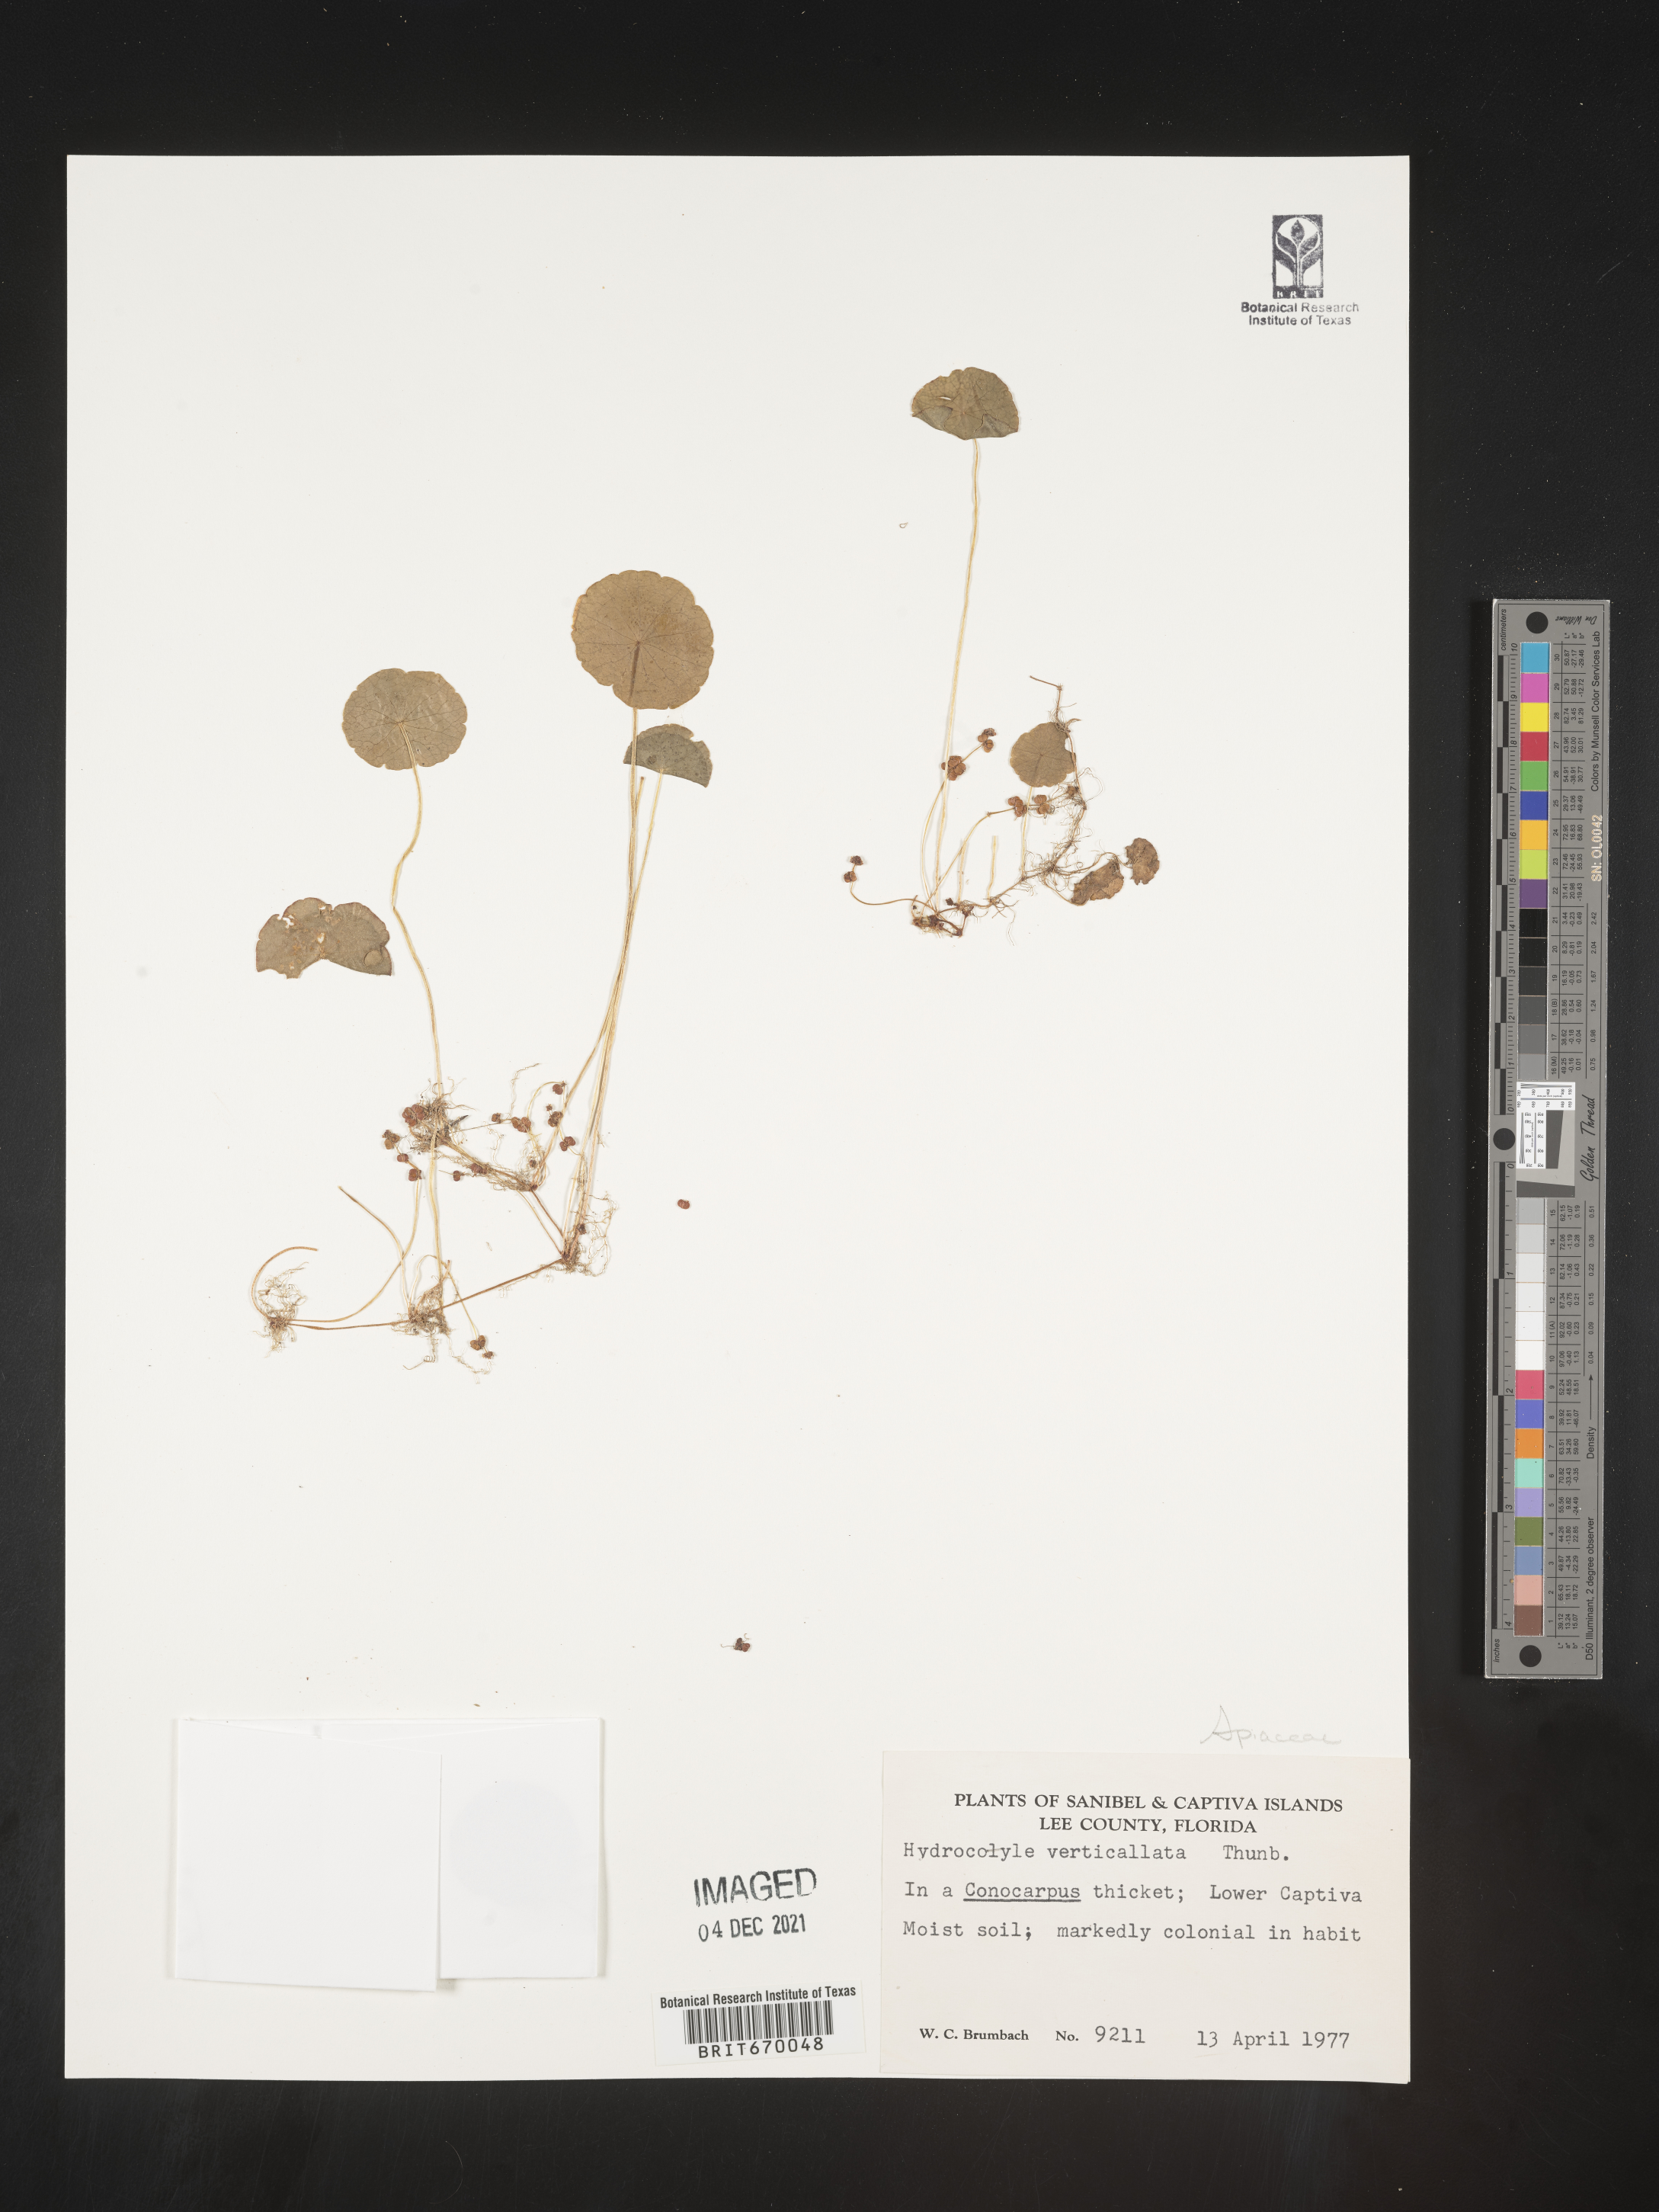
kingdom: Plantae
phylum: Tracheophyta
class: Magnoliopsida
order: Apiales
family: Araliaceae
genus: Hydrocotyle
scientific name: Hydrocotyle verticillata
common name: Whorled marshpennywort
